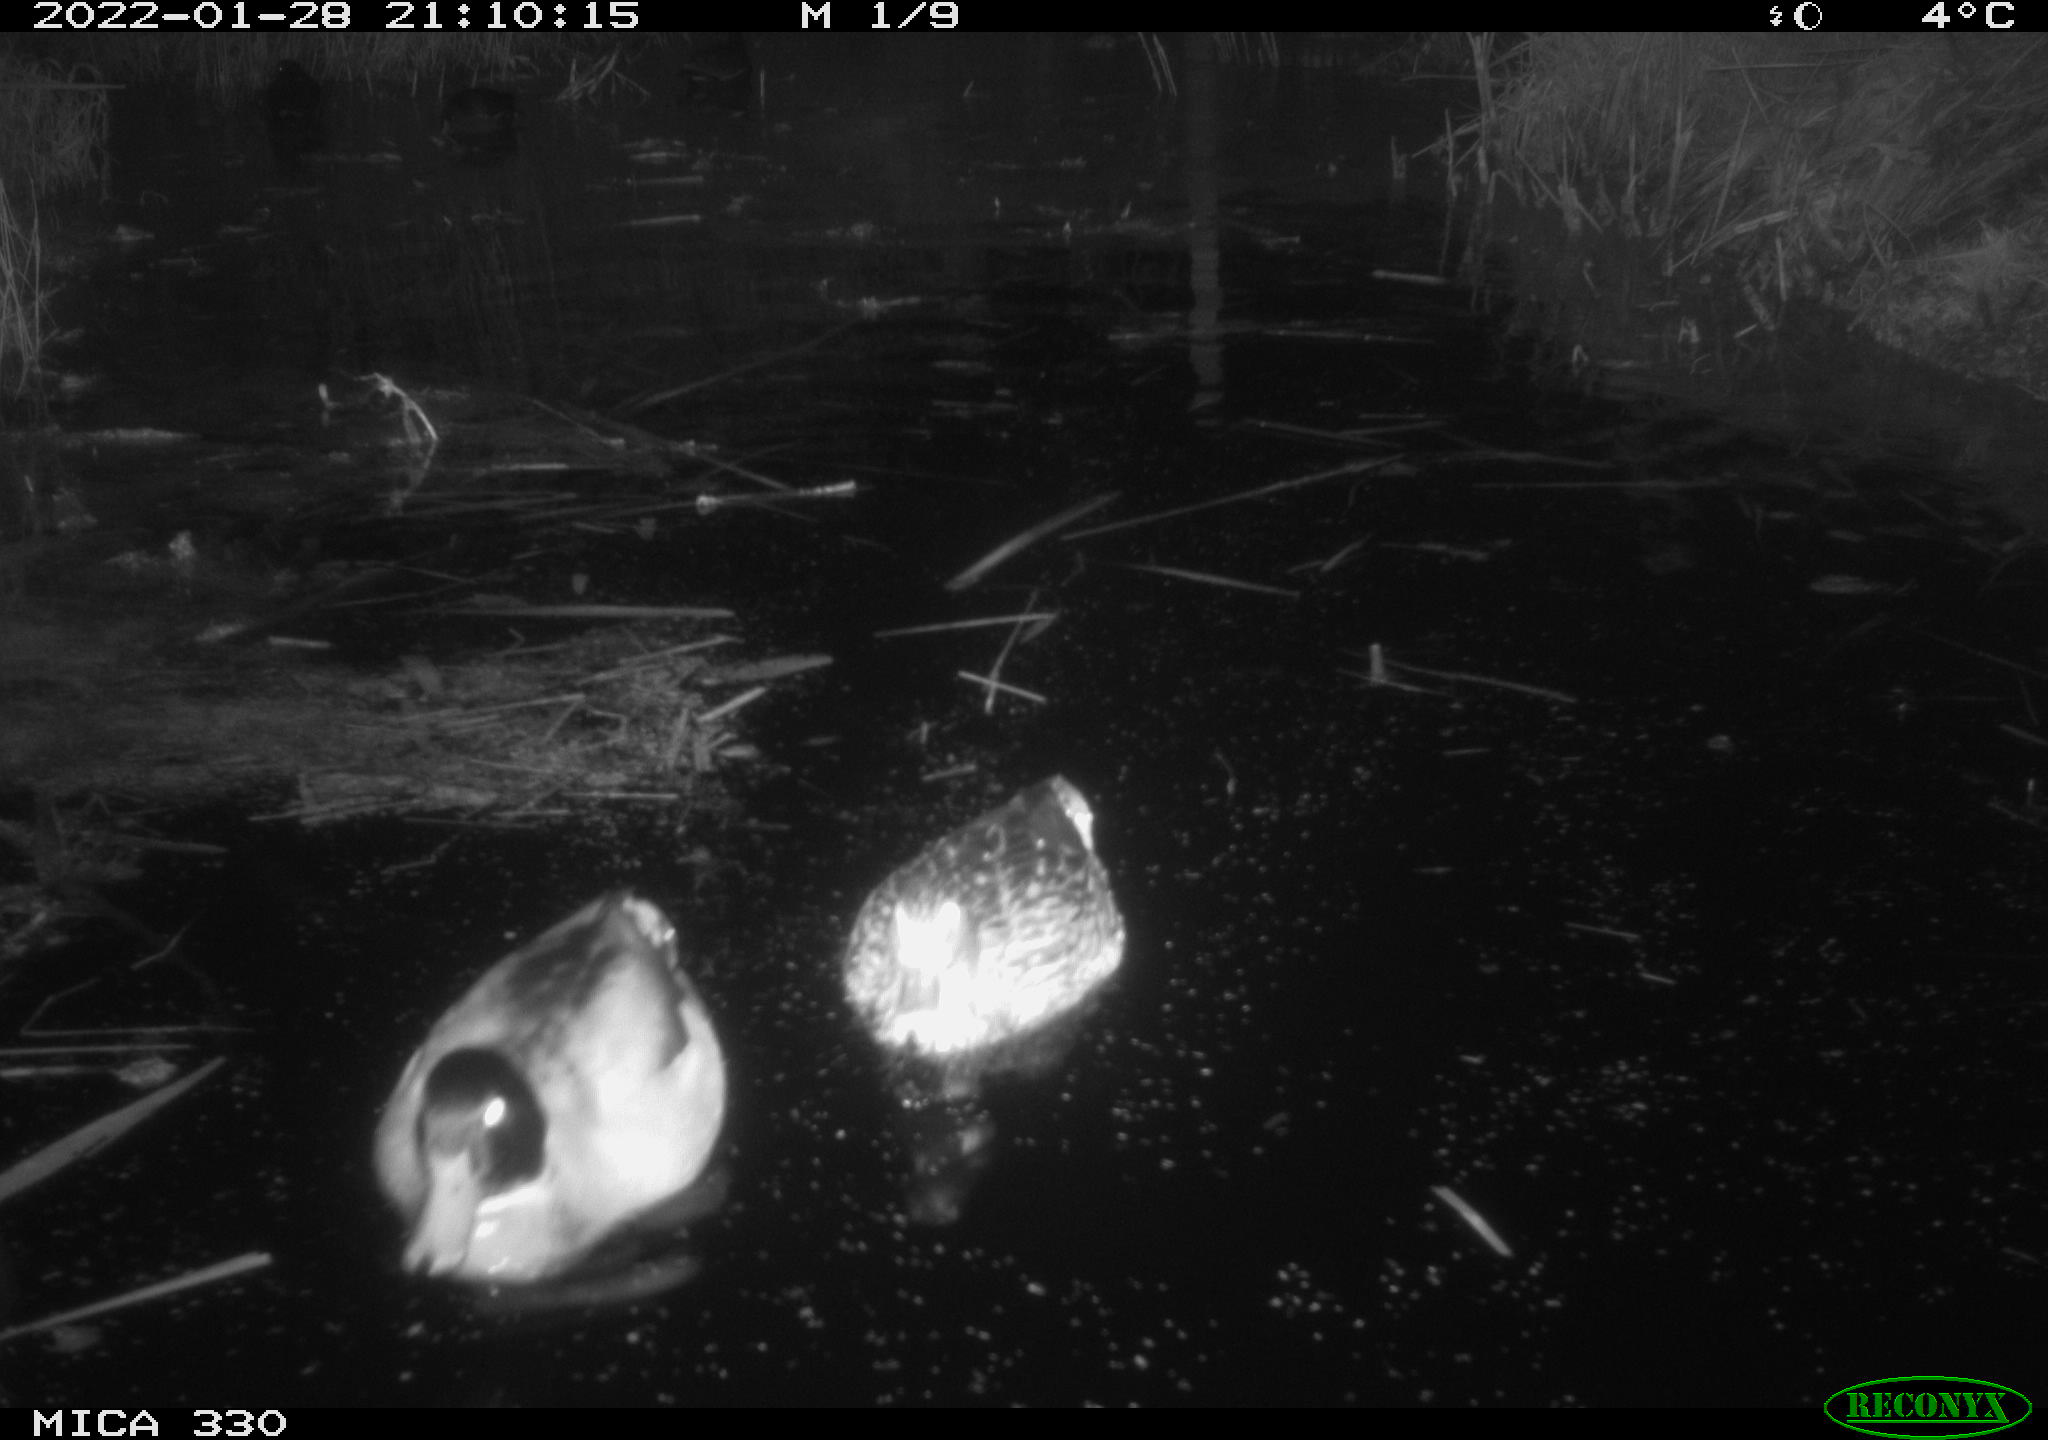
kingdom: Animalia
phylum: Chordata
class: Aves
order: Anseriformes
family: Anatidae
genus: Anas
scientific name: Anas platyrhynchos
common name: Mallard
